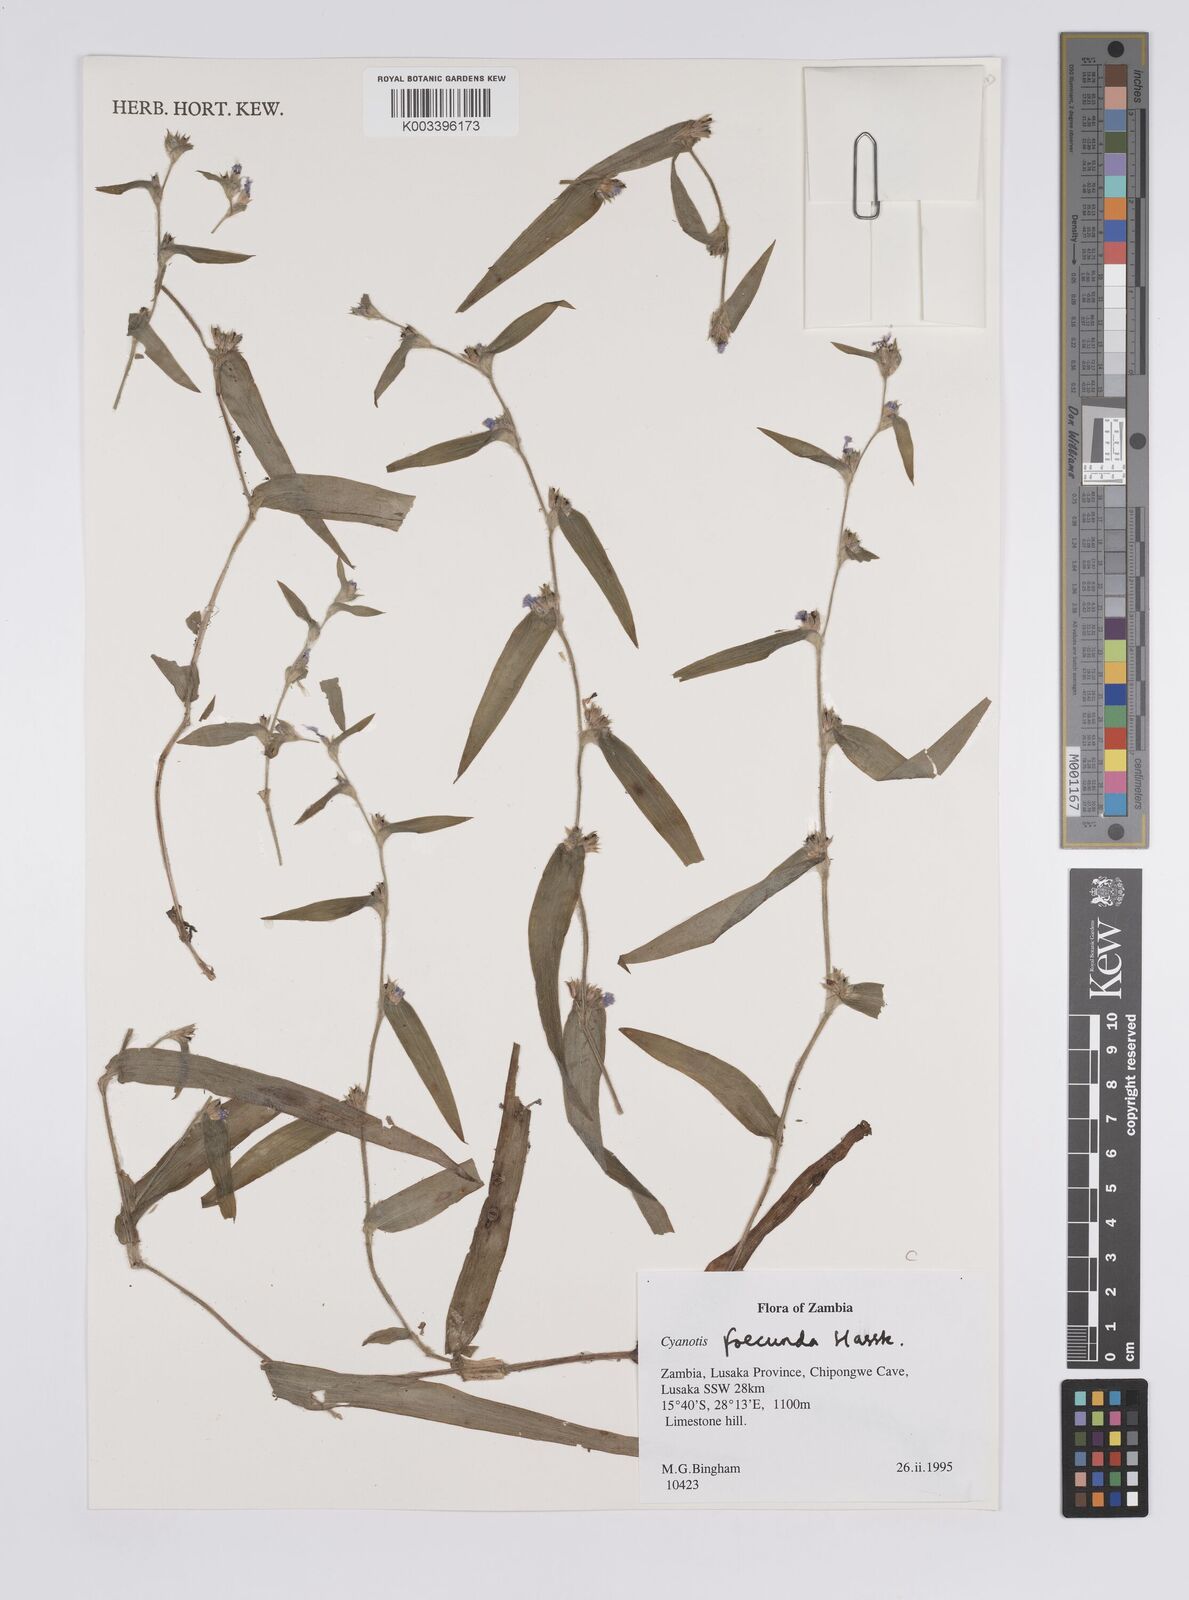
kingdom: Plantae
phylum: Tracheophyta
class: Liliopsida
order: Commelinales
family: Commelinaceae
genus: Cyanotis
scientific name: Cyanotis foecunda
